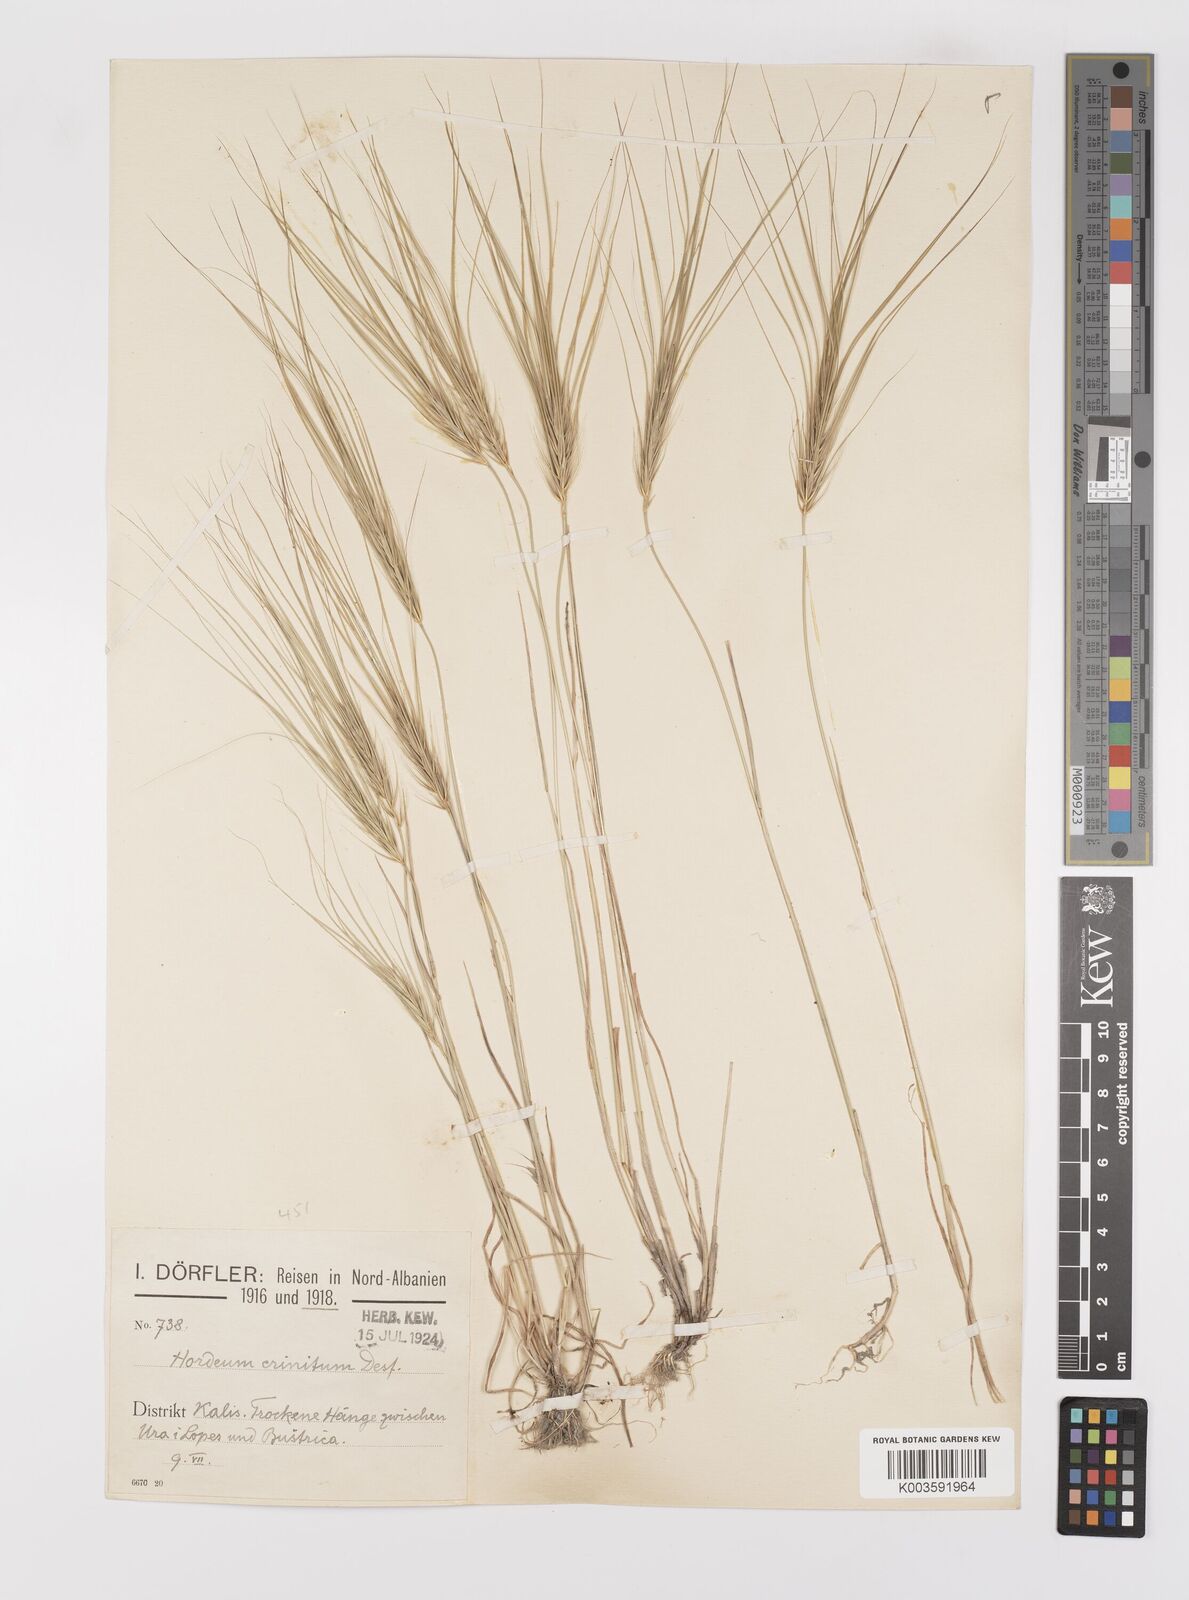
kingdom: Plantae
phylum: Tracheophyta
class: Liliopsida
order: Poales
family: Poaceae
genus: Taeniatherum
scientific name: Taeniatherum caput-medusae
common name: Medusahead
